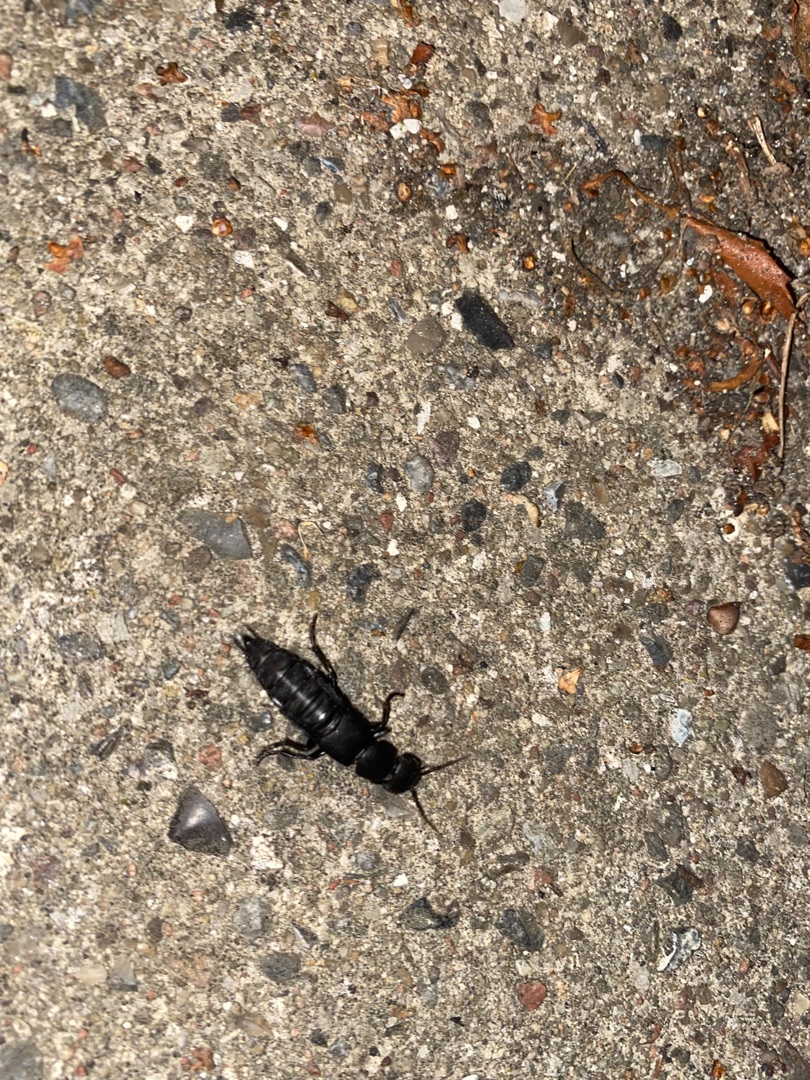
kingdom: Animalia
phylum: Arthropoda
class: Insecta
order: Coleoptera
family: Staphylinidae
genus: Ocypus
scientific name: Ocypus olens
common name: Stor rovbille
